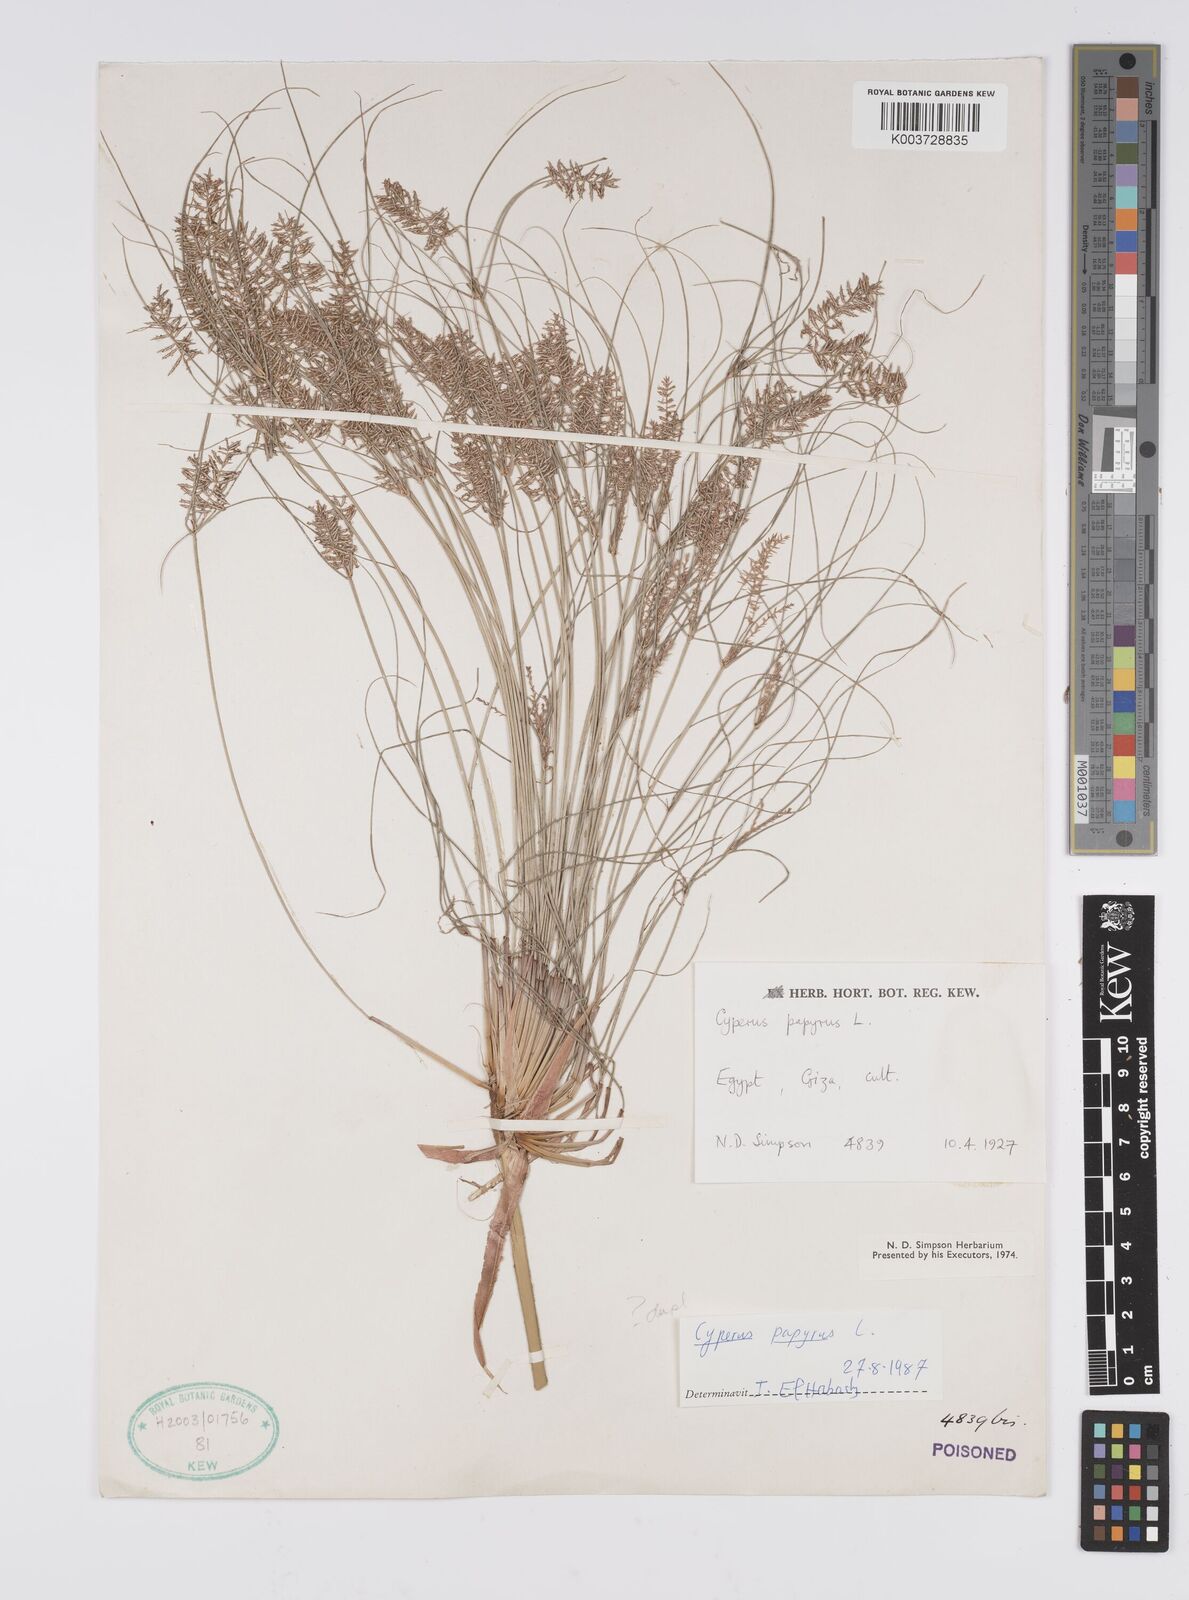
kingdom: Plantae
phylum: Tracheophyta
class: Liliopsida
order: Poales
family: Cyperaceae
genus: Cyperus
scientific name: Cyperus papyrus
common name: Papyrus
